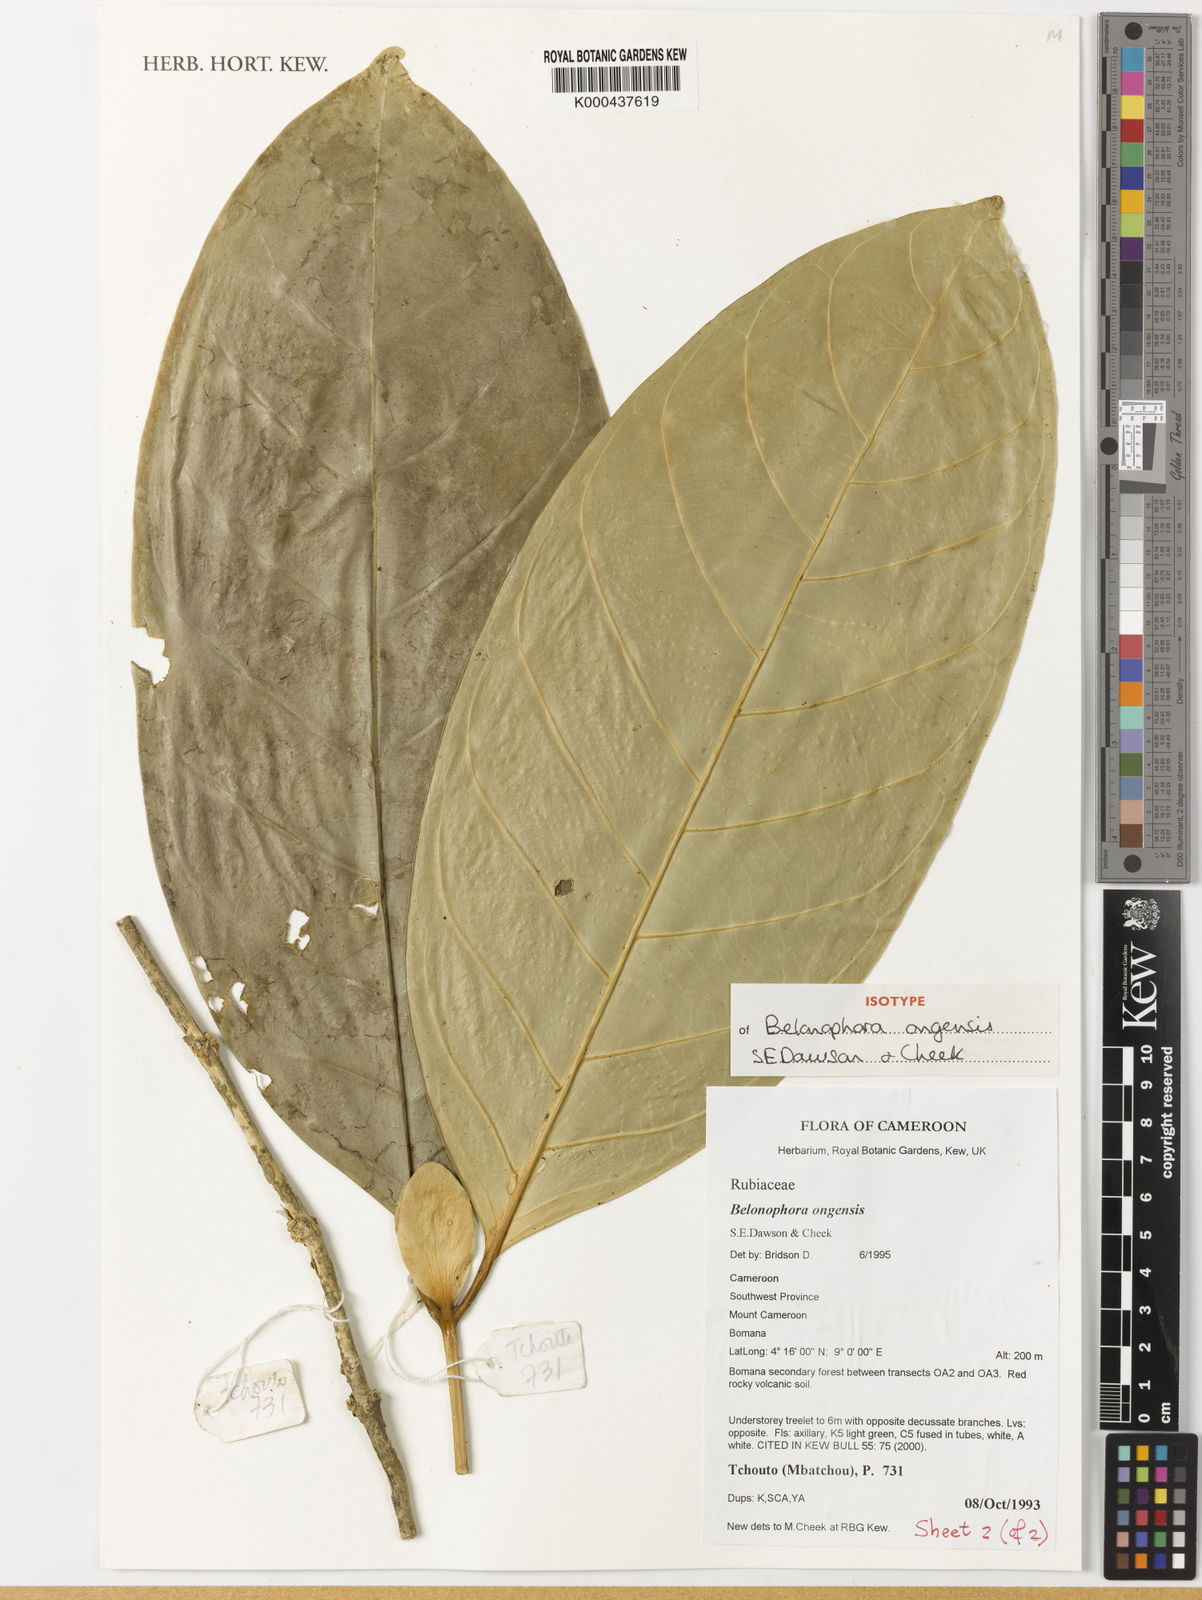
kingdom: Plantae
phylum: Tracheophyta
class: Magnoliopsida
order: Gentianales
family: Rubiaceae
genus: Belonophora
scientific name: Belonophora ongensis
